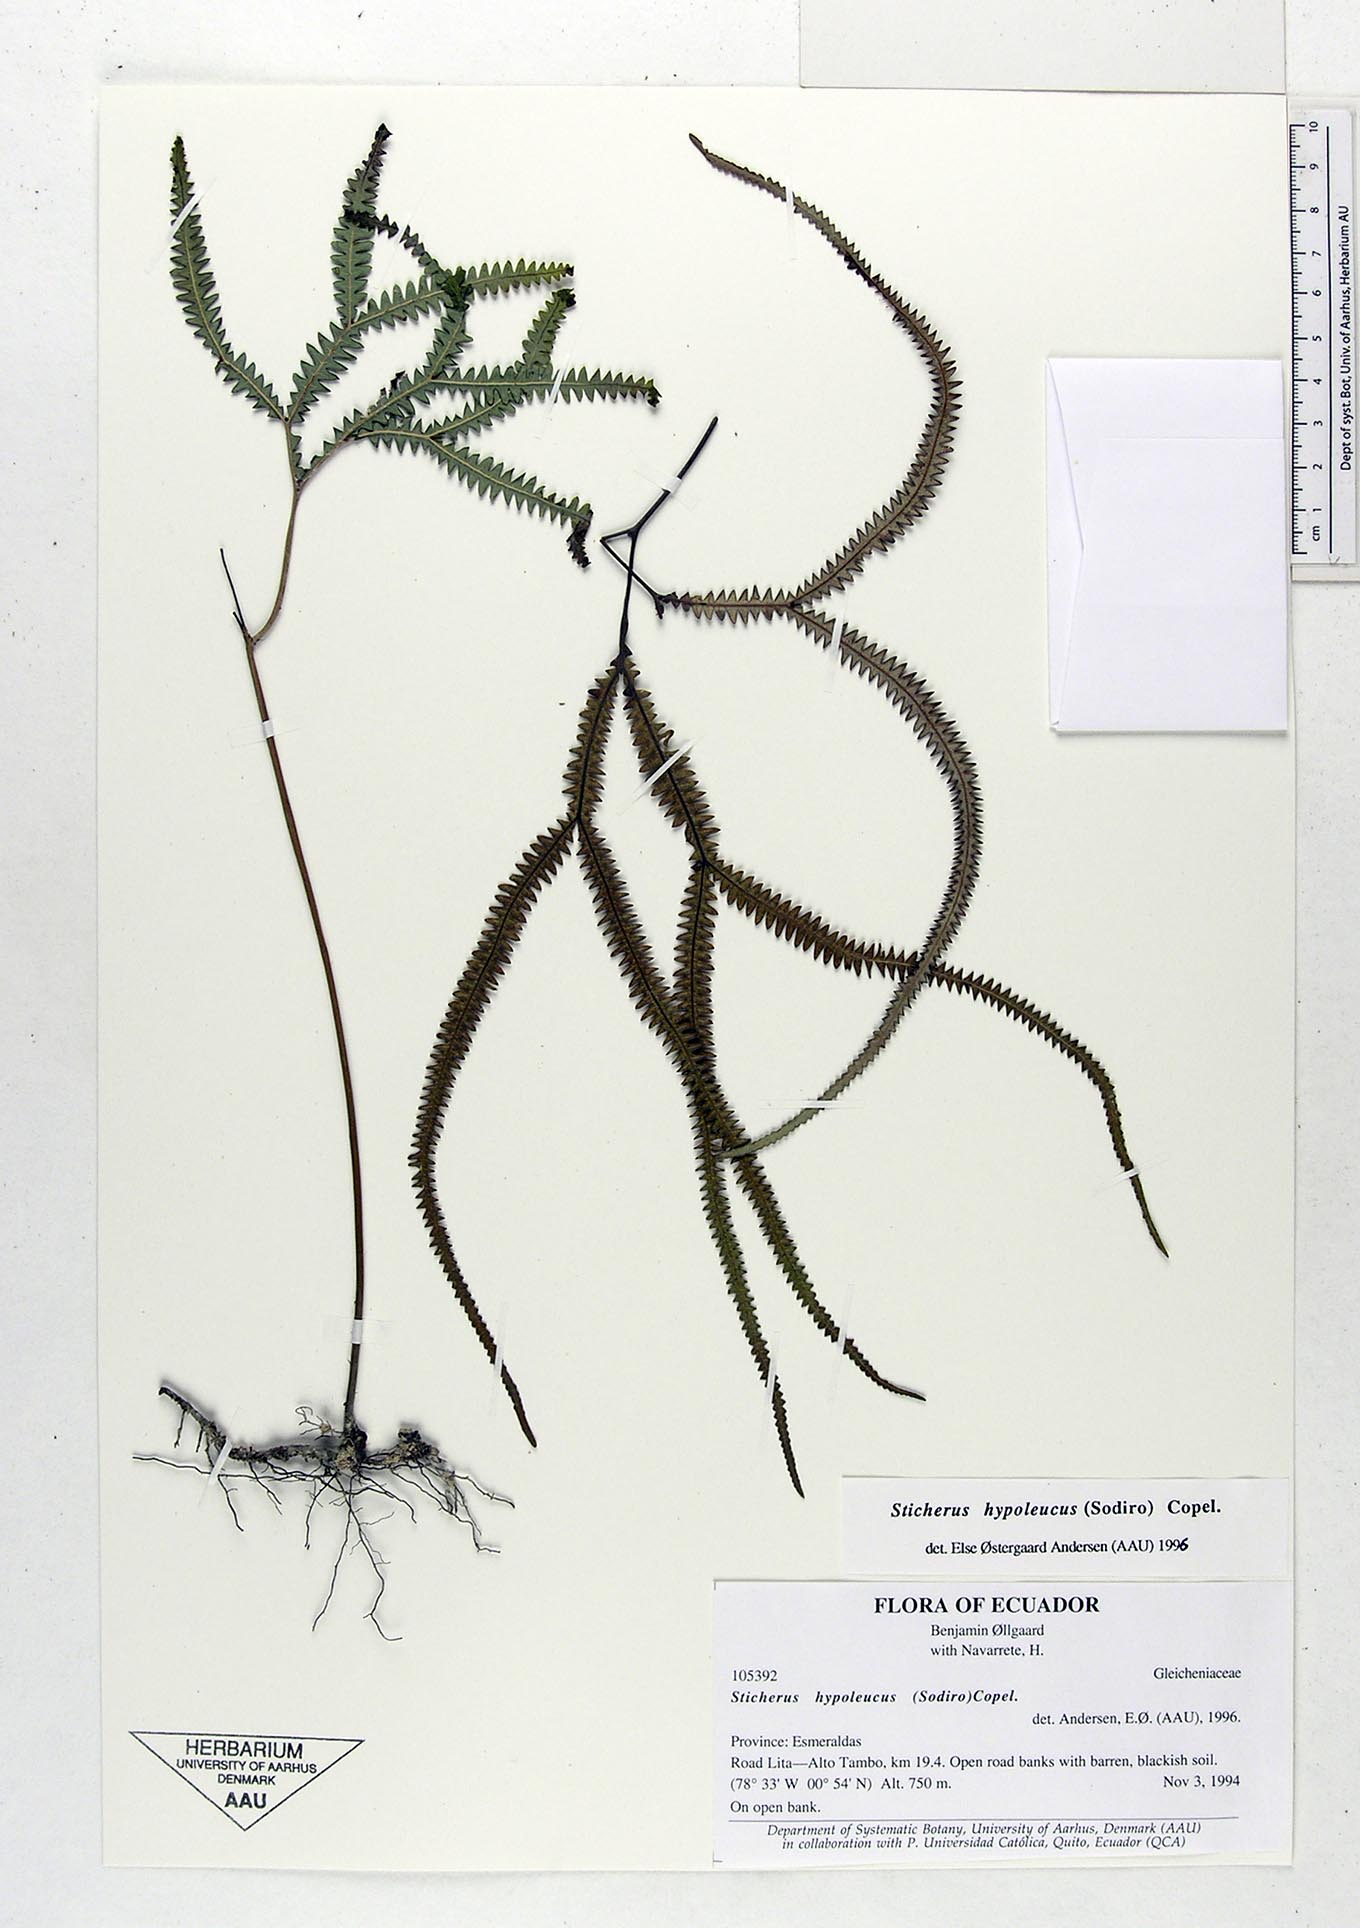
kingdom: Plantae
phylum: Tracheophyta
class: Polypodiopsida
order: Gleicheniales
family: Gleicheniaceae
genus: Sticherus
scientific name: Sticherus hypoleucus
